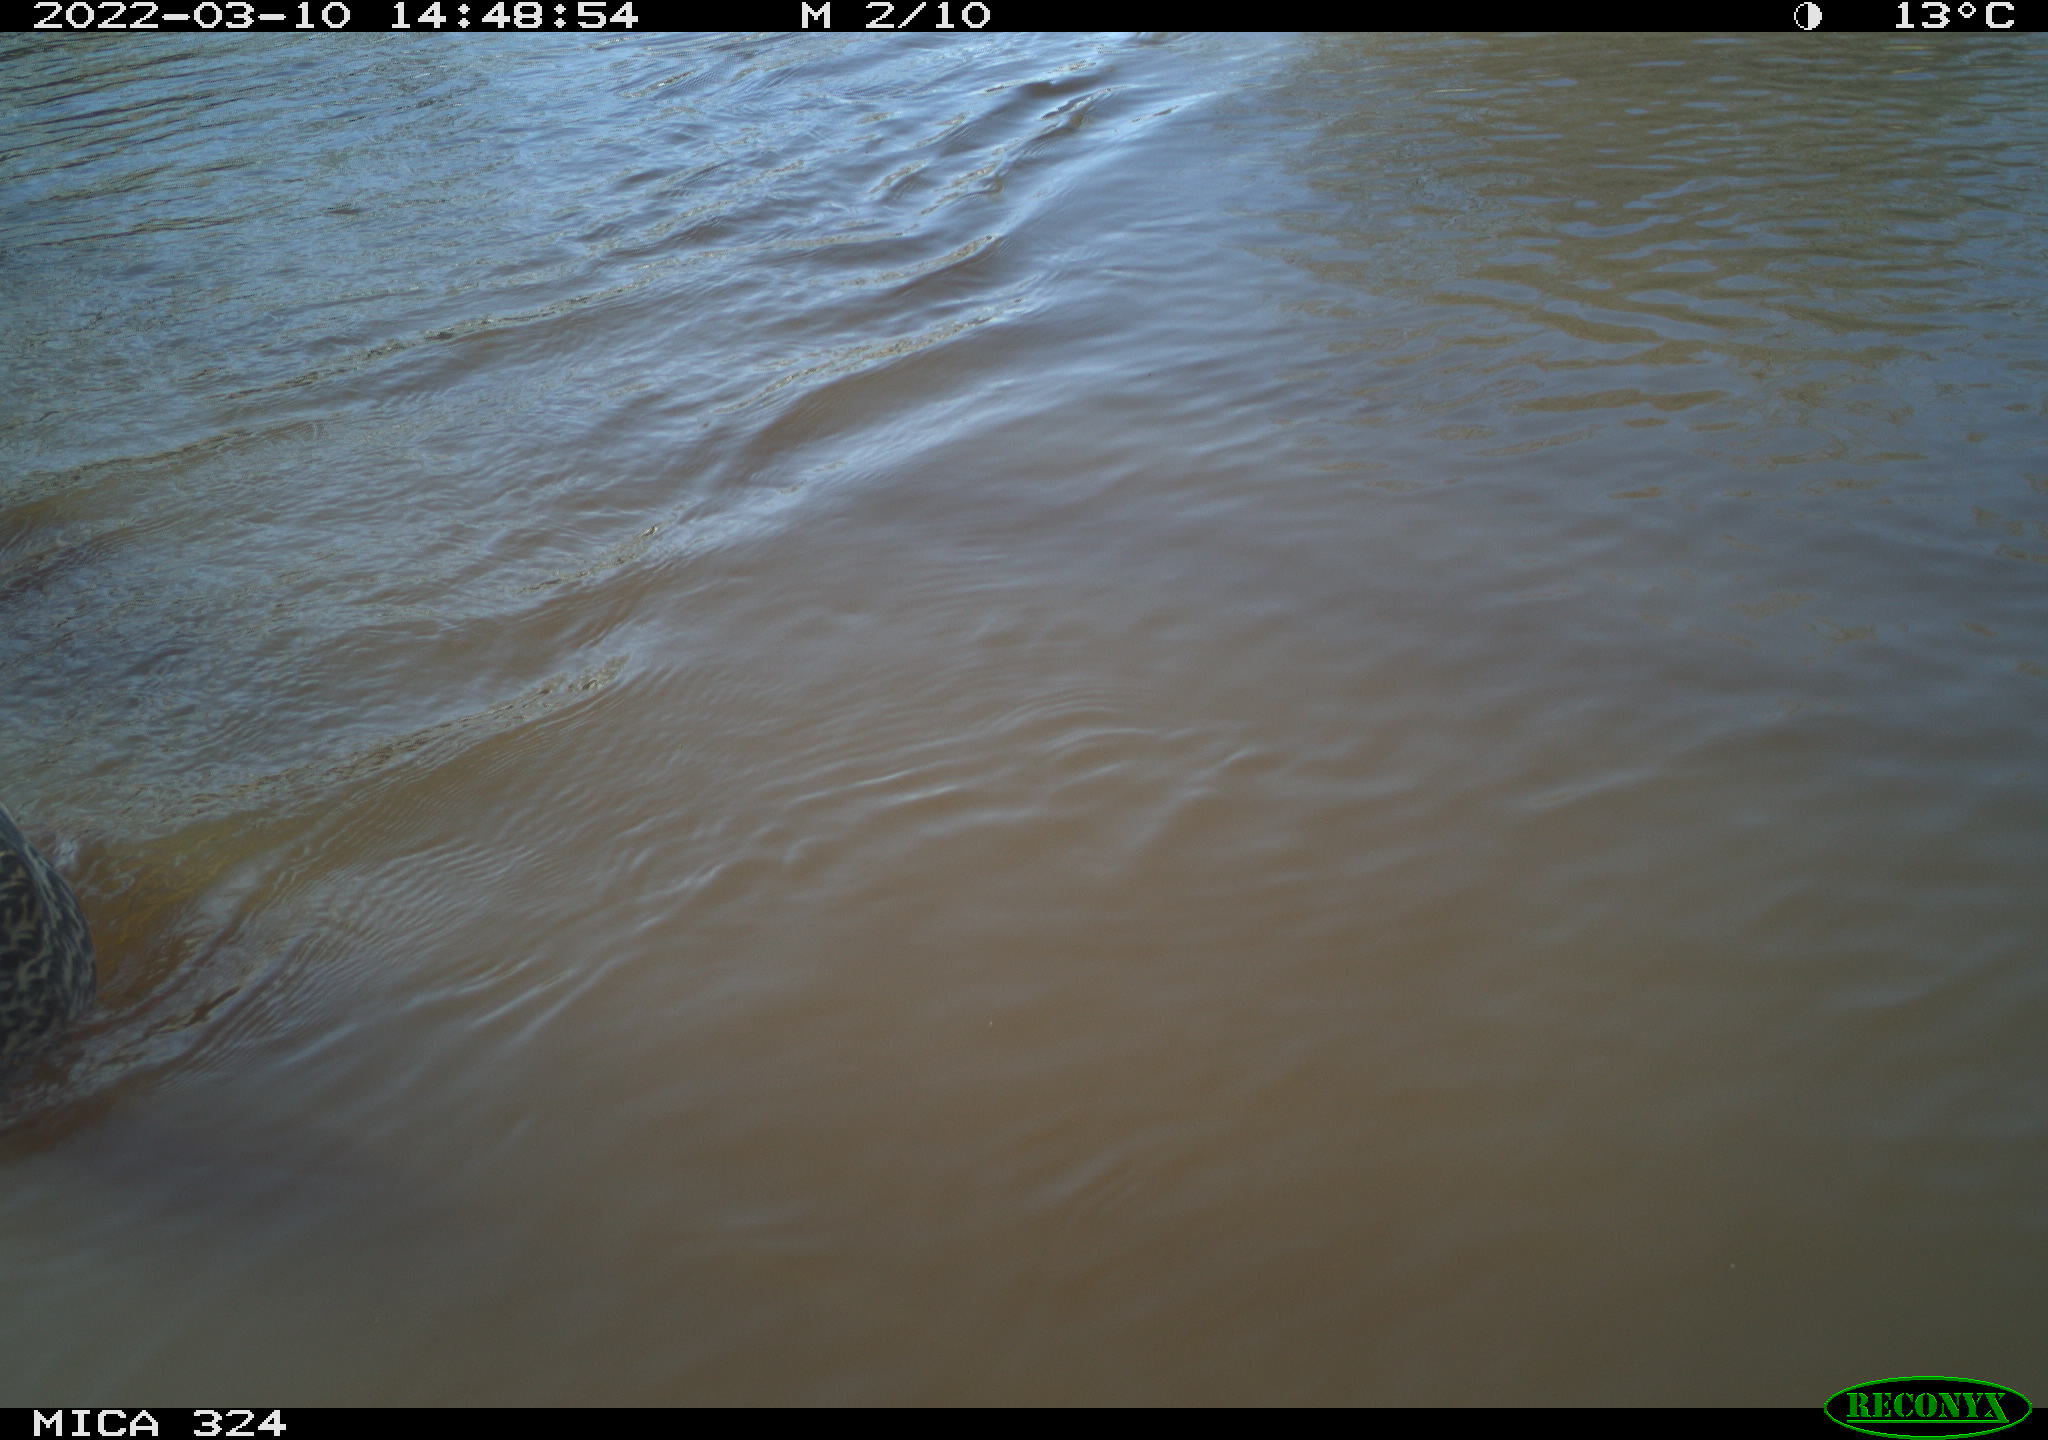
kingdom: Animalia
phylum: Chordata
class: Aves
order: Anseriformes
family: Anatidae
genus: Anas
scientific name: Anas platyrhynchos
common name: Mallard
